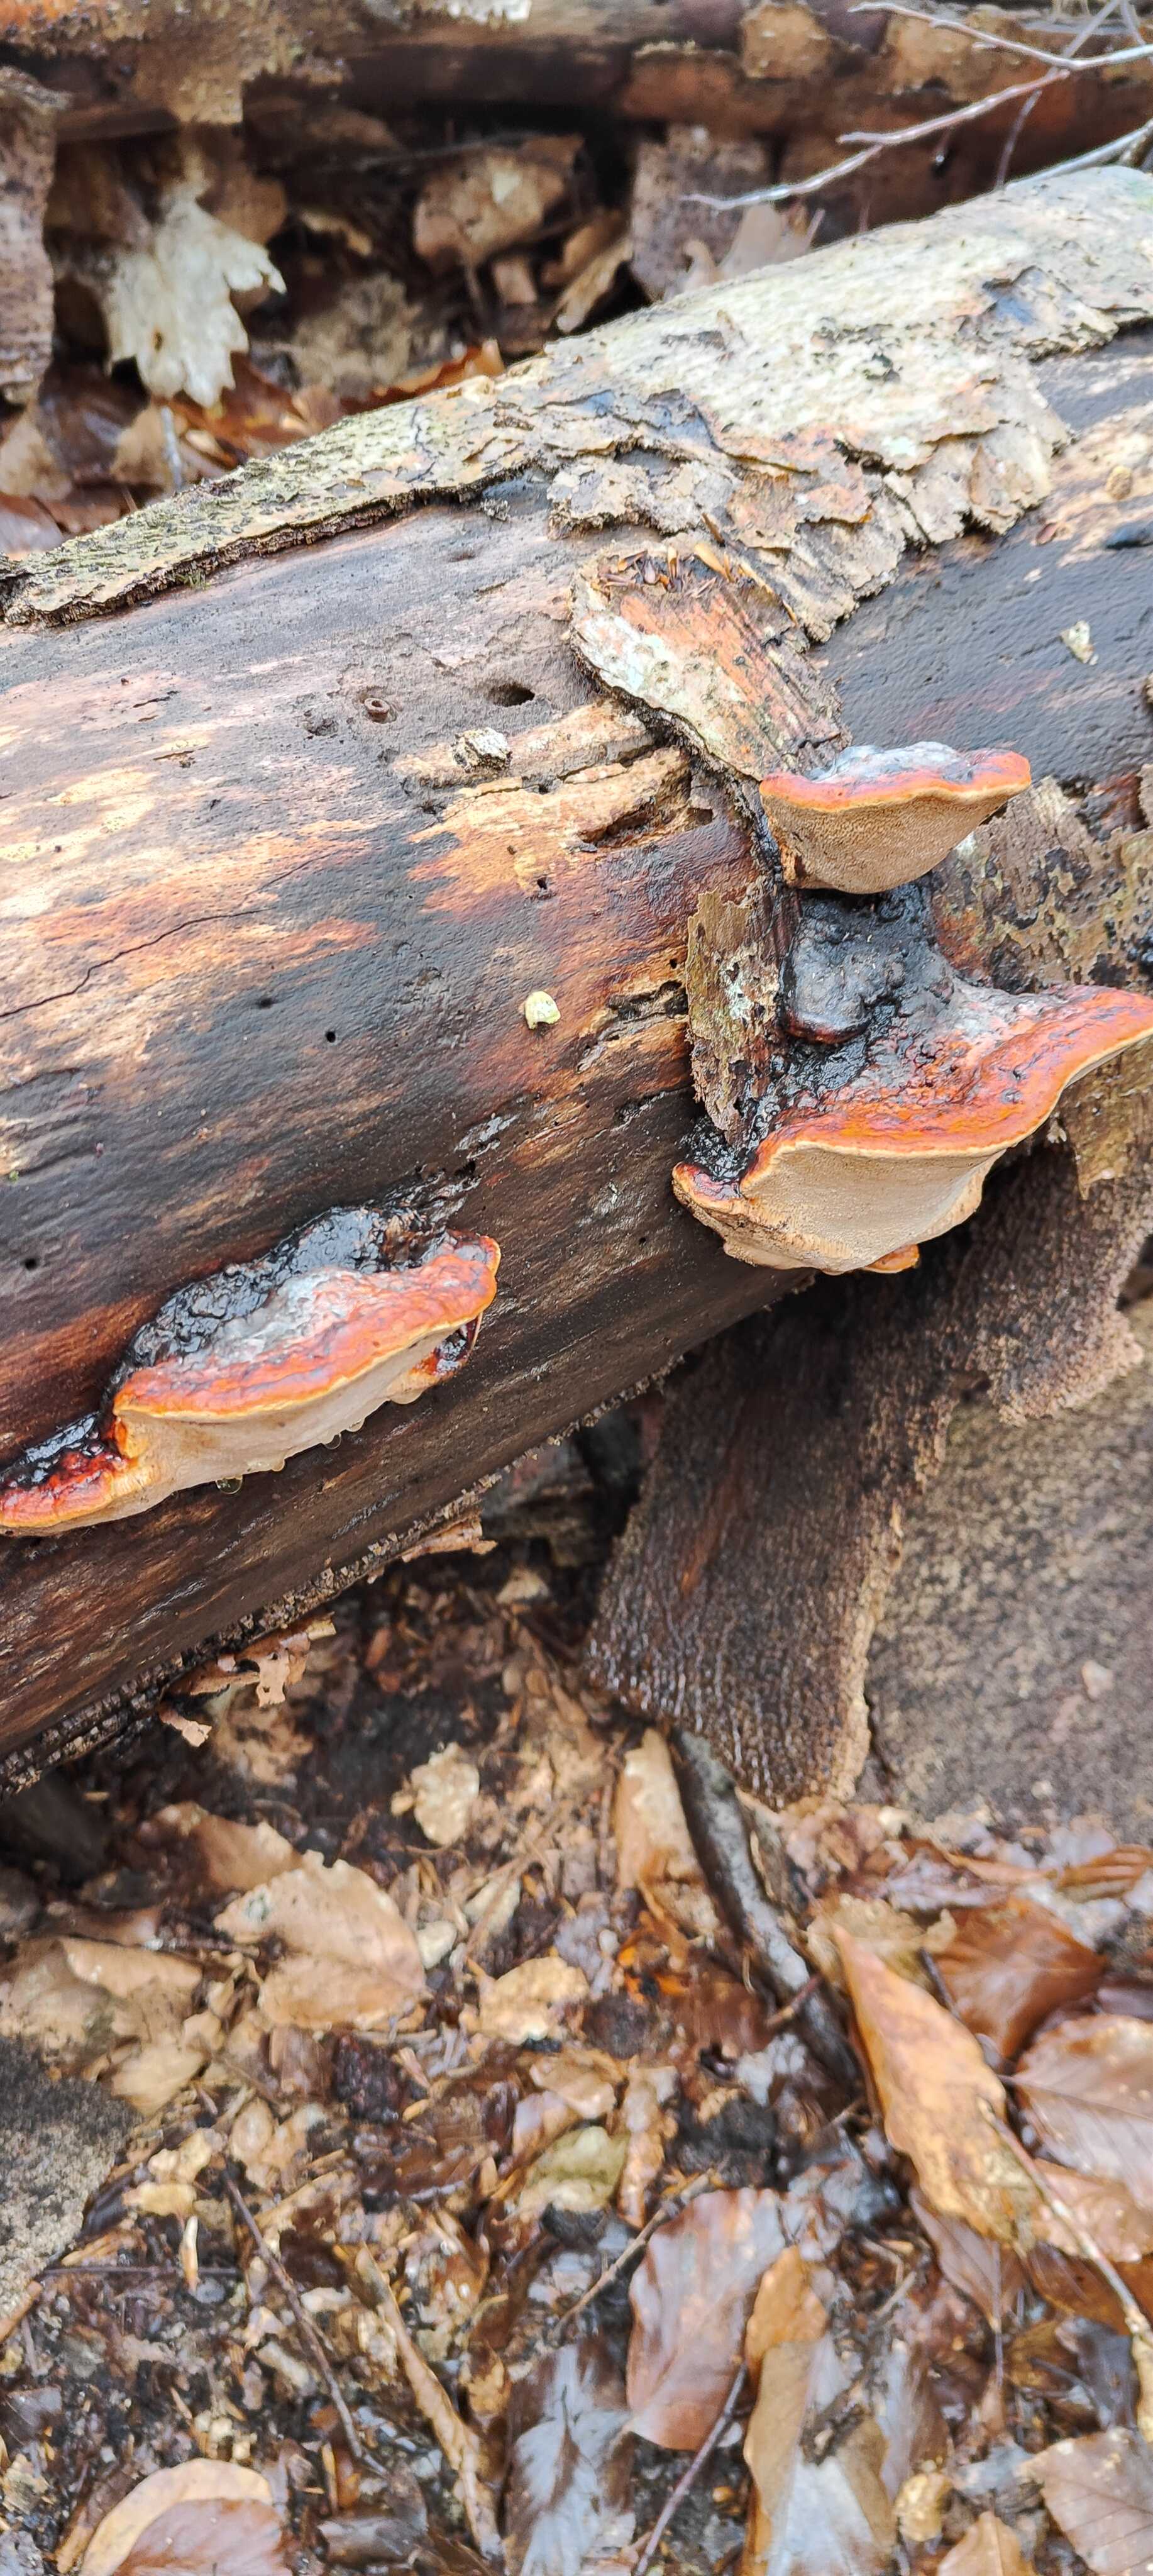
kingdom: Fungi
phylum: Basidiomycota
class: Agaricomycetes
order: Polyporales
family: Fomitopsidaceae
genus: Fomitopsis
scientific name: Fomitopsis pinicola
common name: randbæltet hovporesvamp
